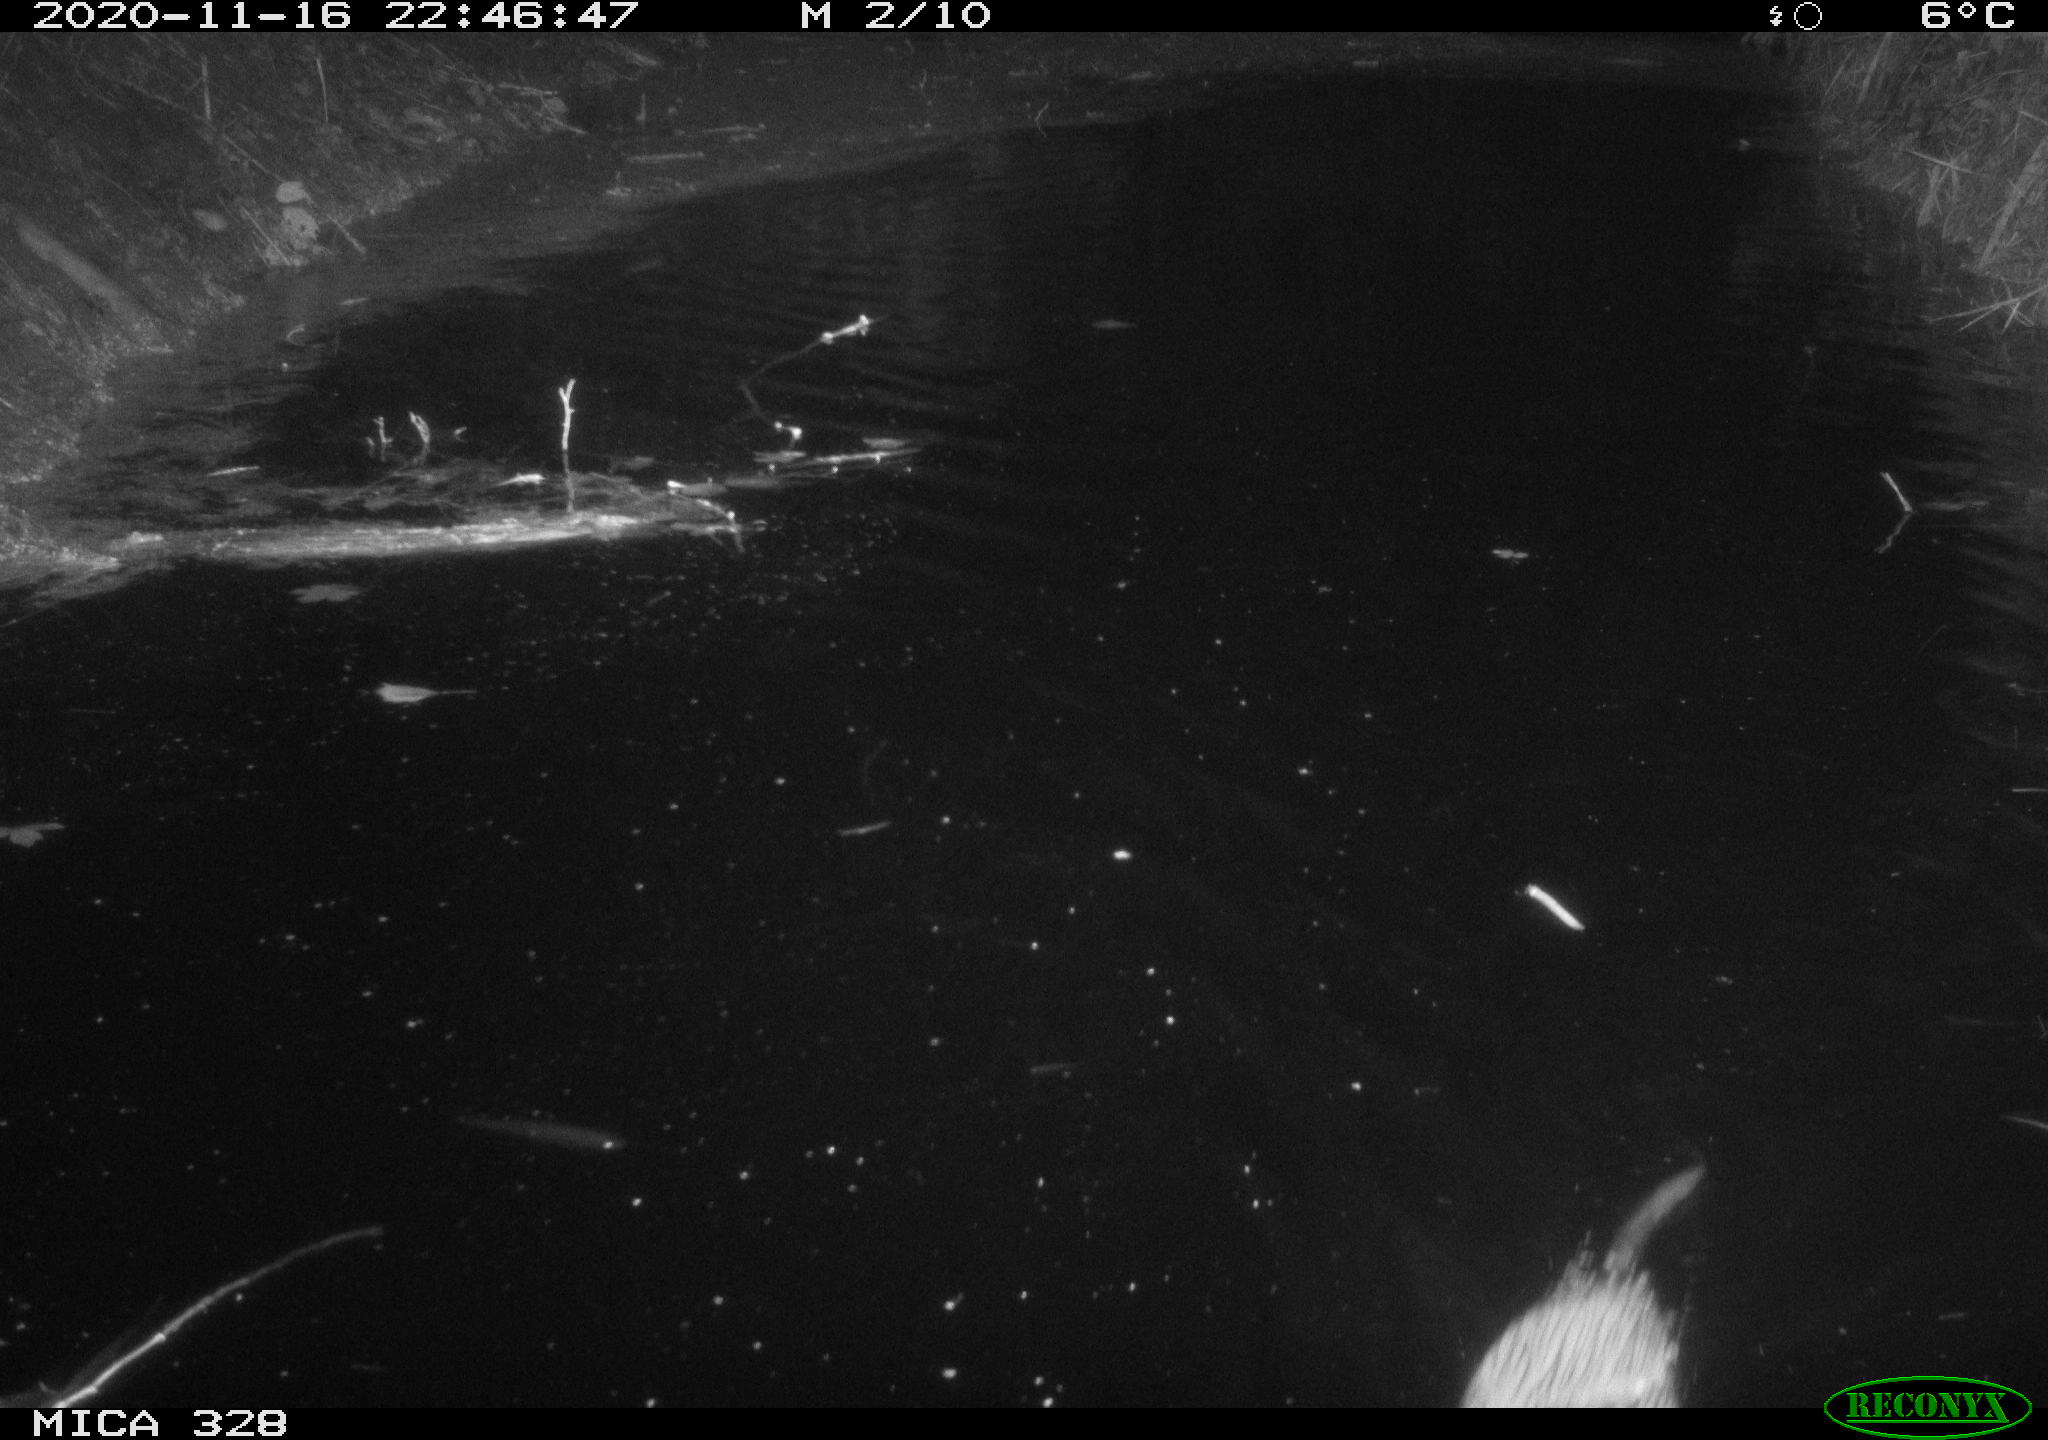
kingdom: Animalia
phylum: Chordata
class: Mammalia
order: Rodentia
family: Myocastoridae
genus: Myocastor
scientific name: Myocastor coypus
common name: Coypu
